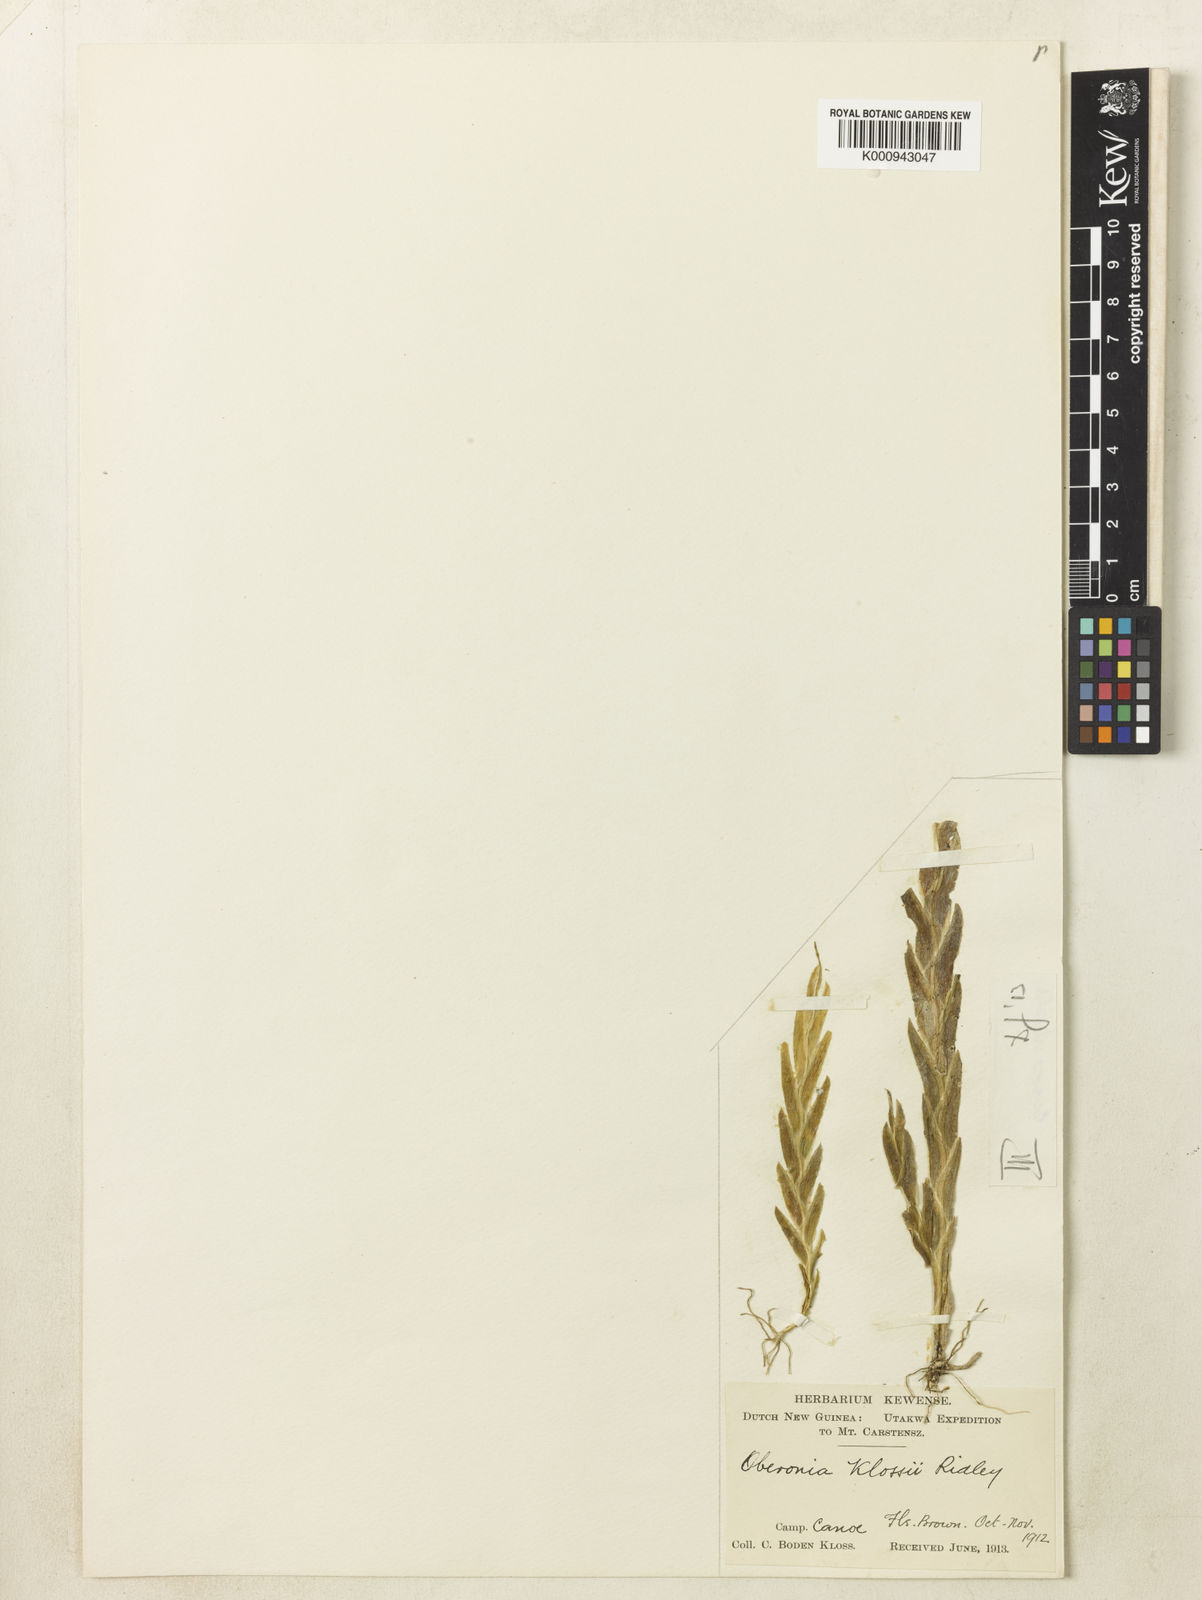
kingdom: Plantae
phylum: Tracheophyta
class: Liliopsida
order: Asparagales
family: Orchidaceae
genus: Oberonia
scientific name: Oberonia klossii
